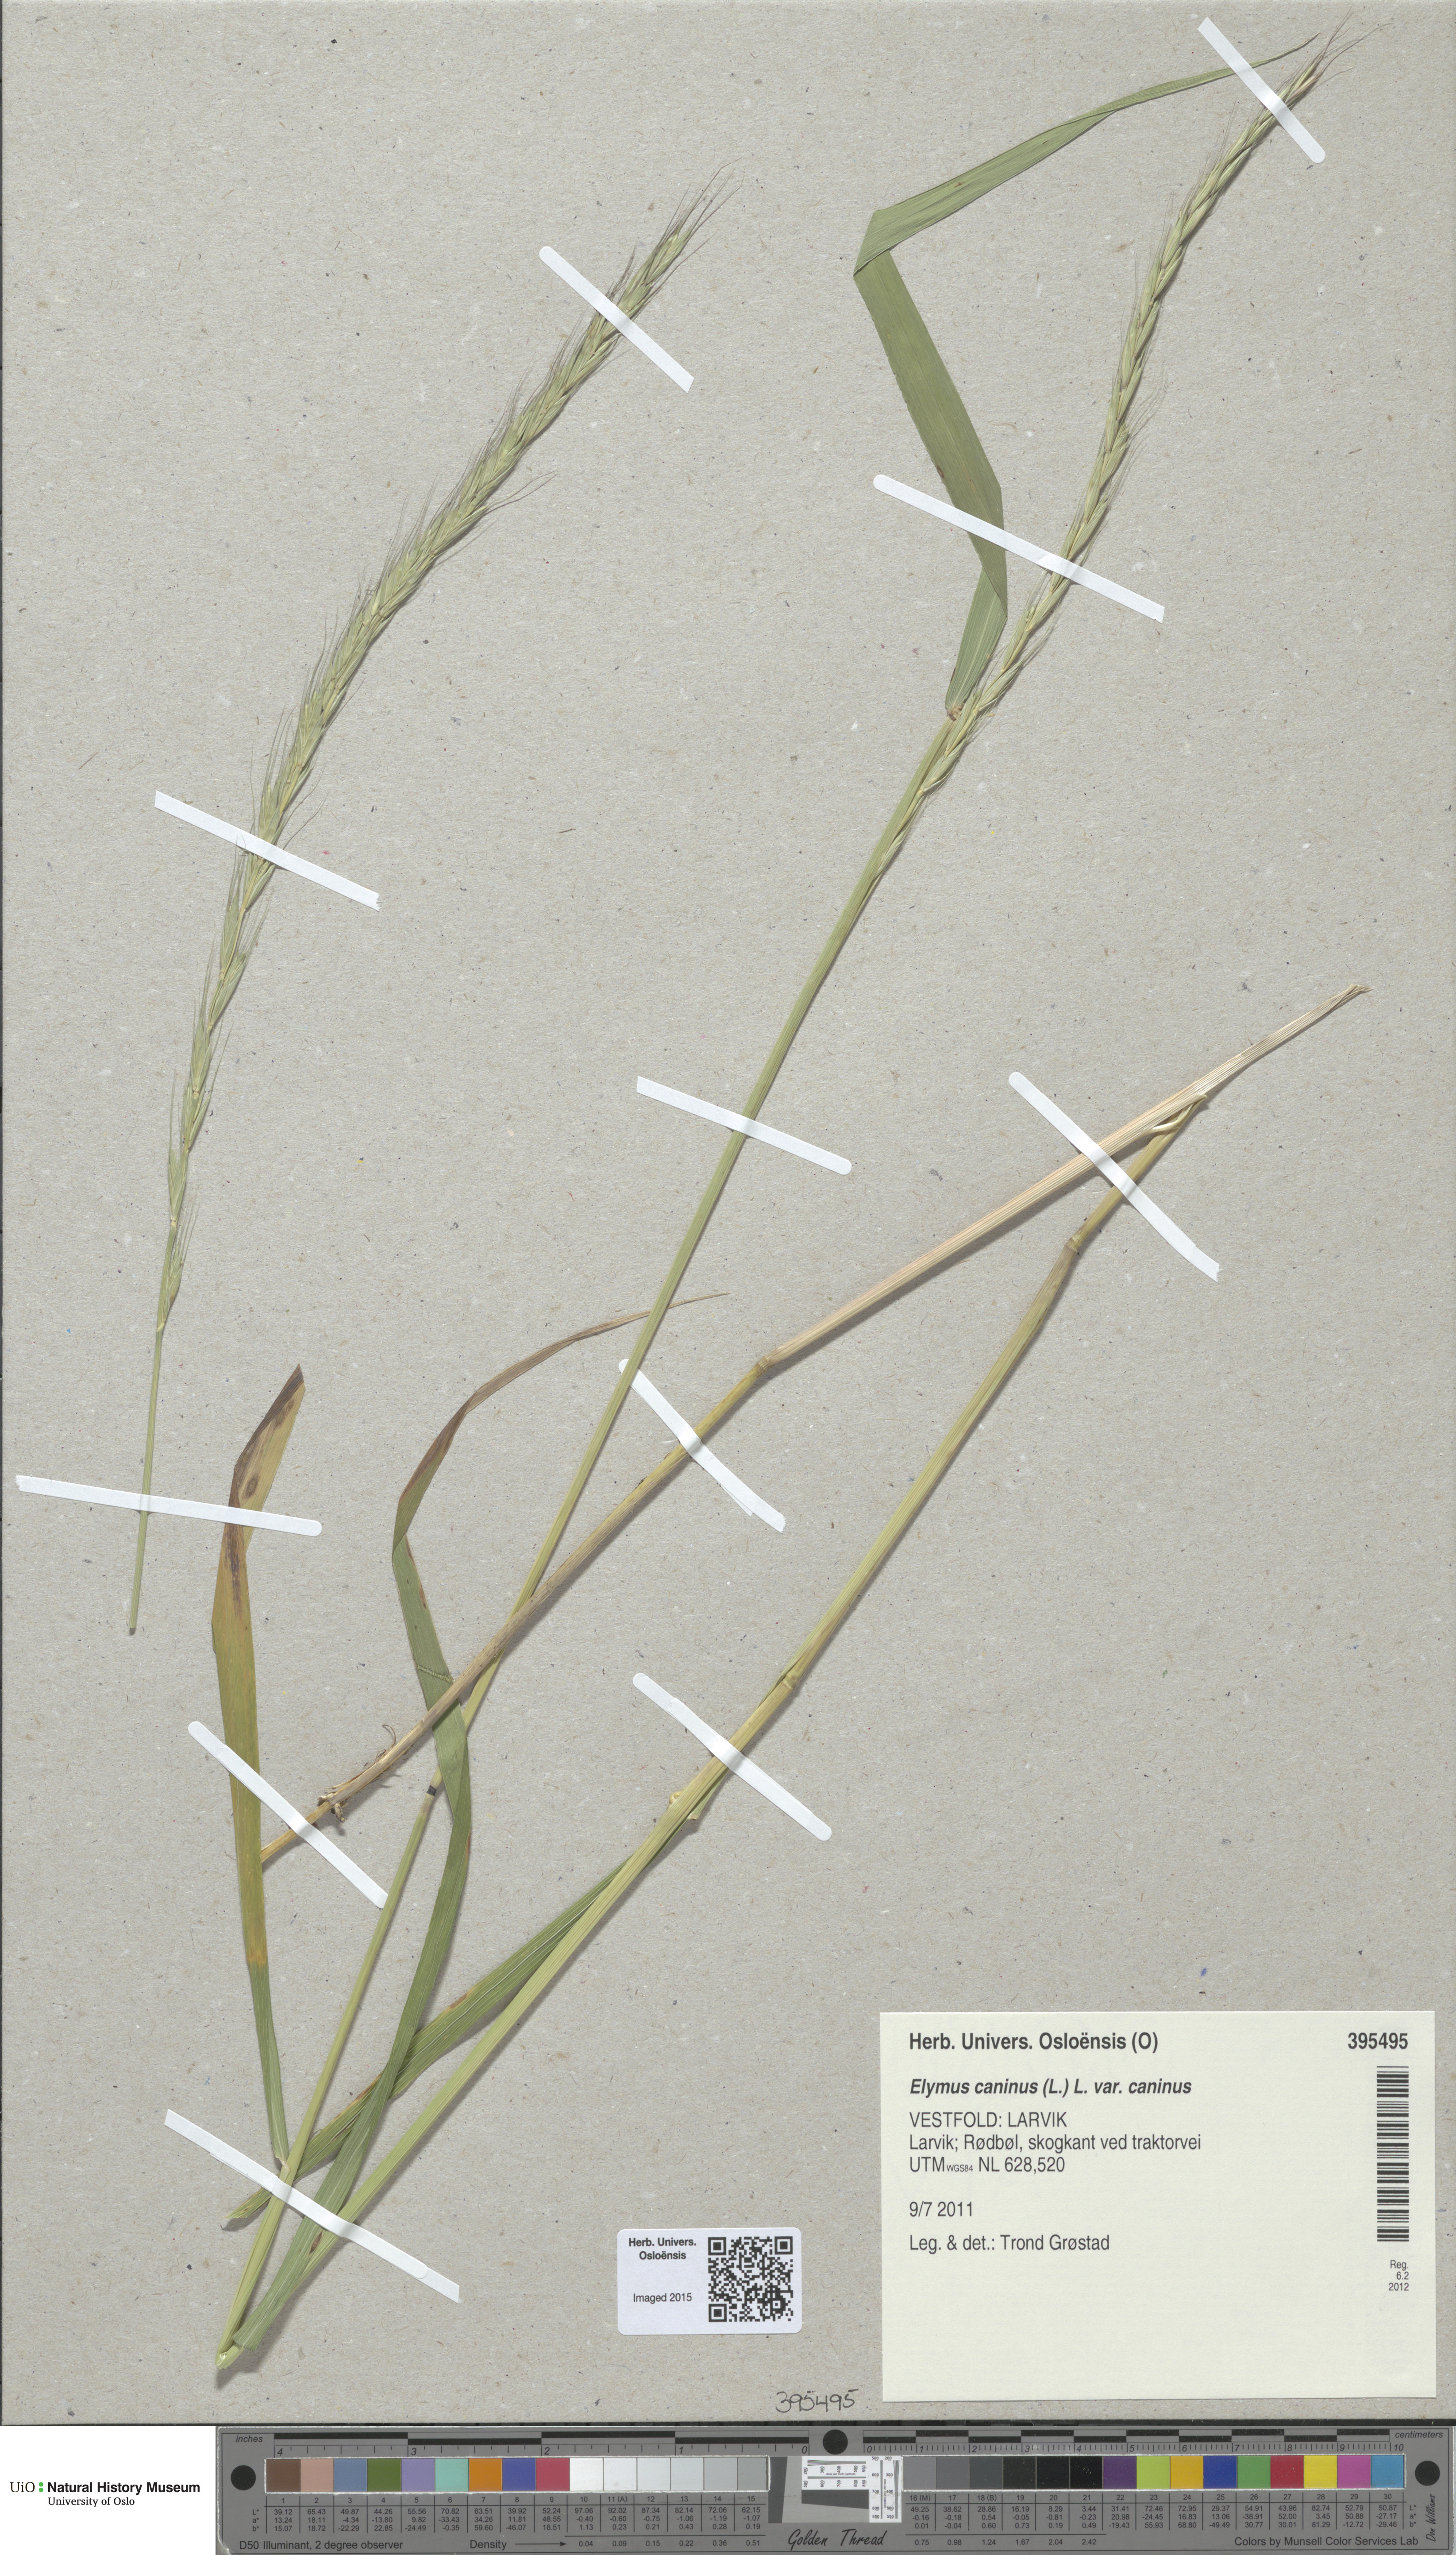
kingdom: Plantae
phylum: Tracheophyta
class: Liliopsida
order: Poales
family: Poaceae
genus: Elymus
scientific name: Elymus caninus
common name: Bearded couch
